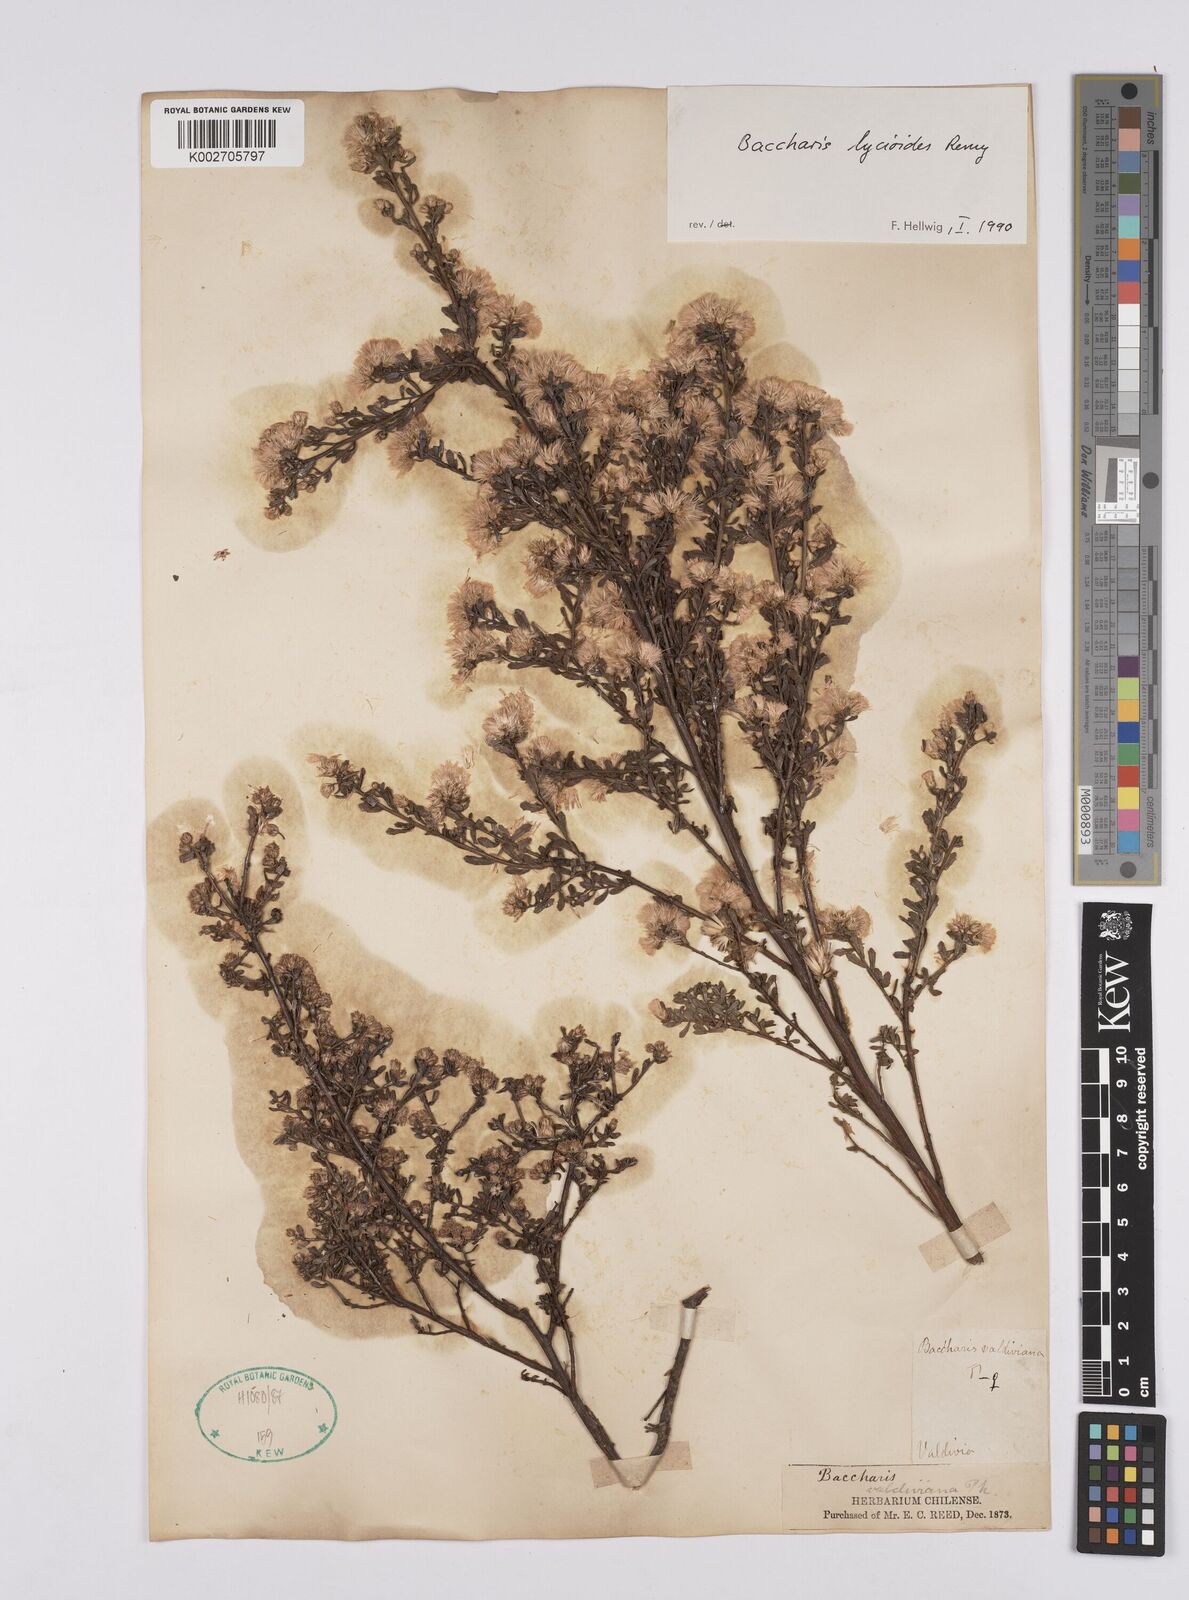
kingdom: Plantae
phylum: Tracheophyta
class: Magnoliopsida
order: Asterales
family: Asteraceae
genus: Baccharis
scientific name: Baccharis lycioides
